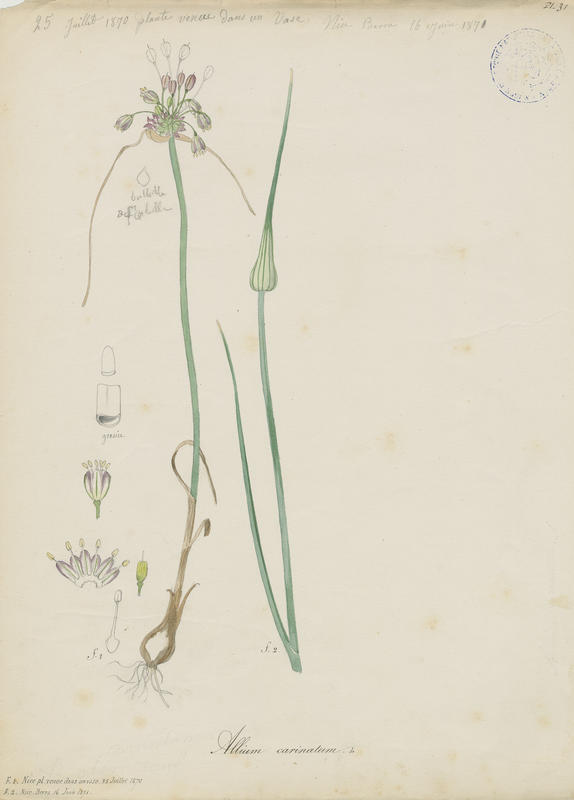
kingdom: Plantae
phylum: Tracheophyta
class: Liliopsida
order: Asparagales
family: Amaryllidaceae
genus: Allium
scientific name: Allium carinatum
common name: Keeled garlic
